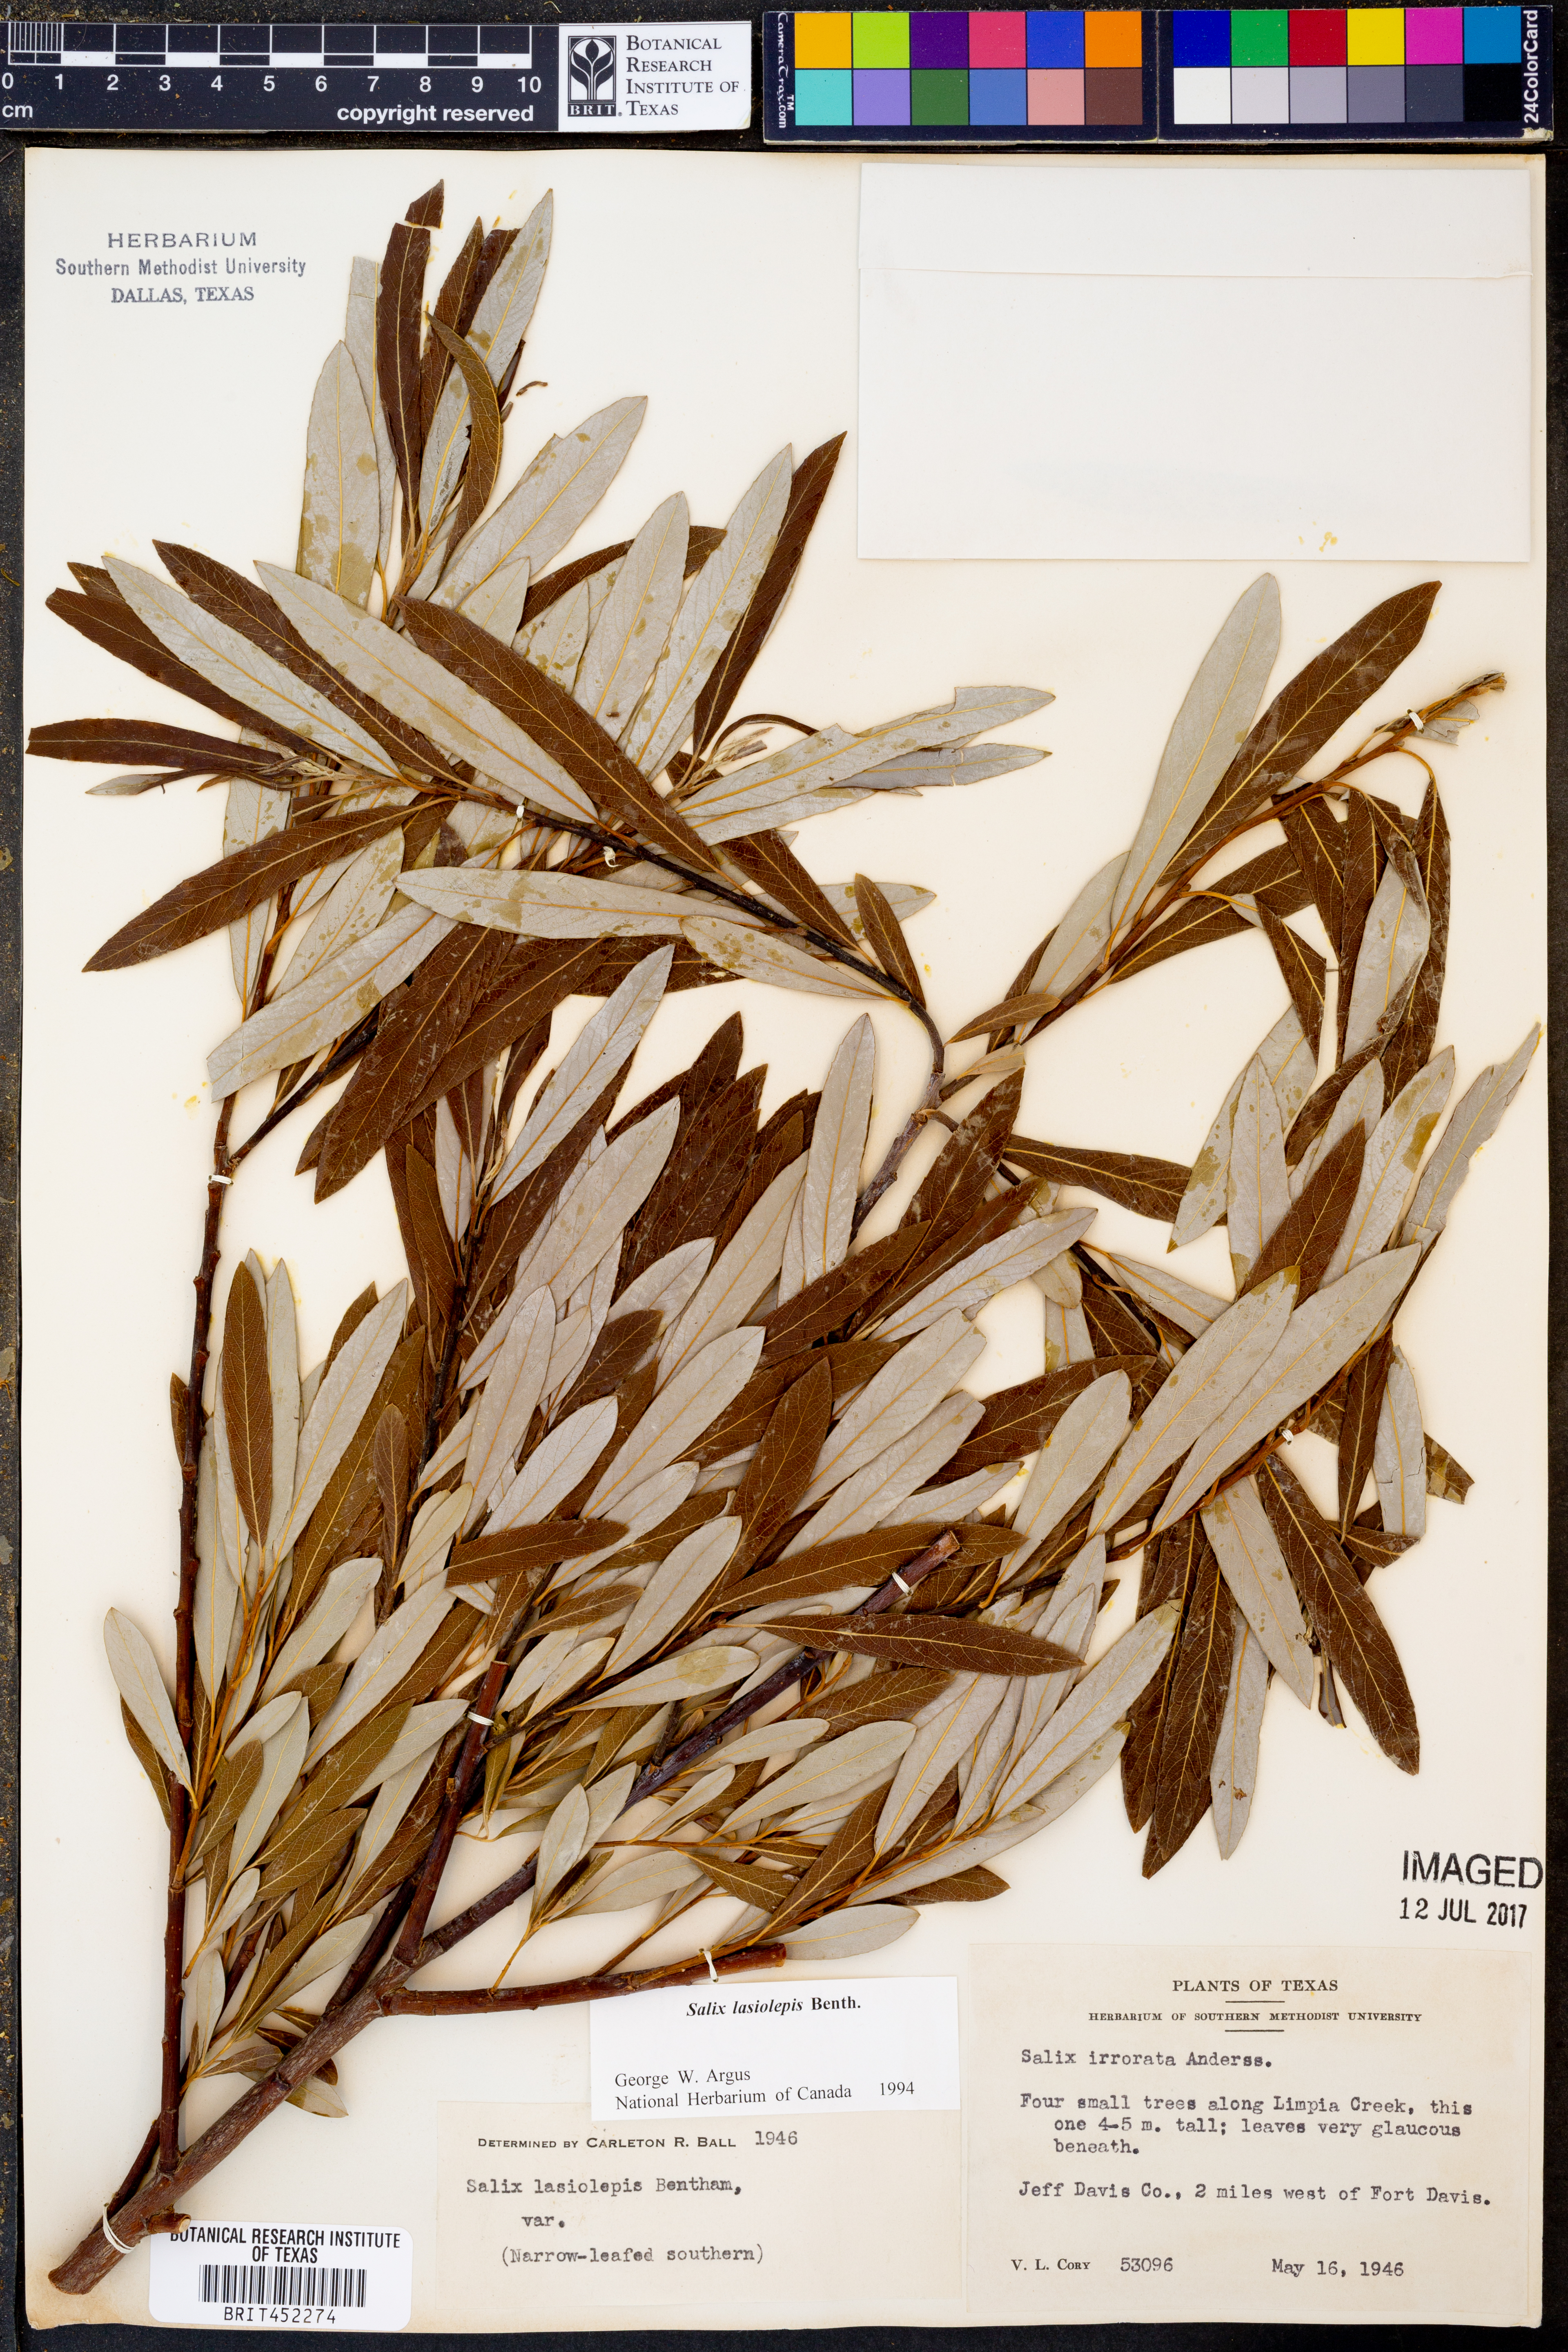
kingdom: Plantae
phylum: Tracheophyta
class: Magnoliopsida
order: Malpighiales
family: Salicaceae
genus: Salix
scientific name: Salix lasiolepis
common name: Arroyo willow
